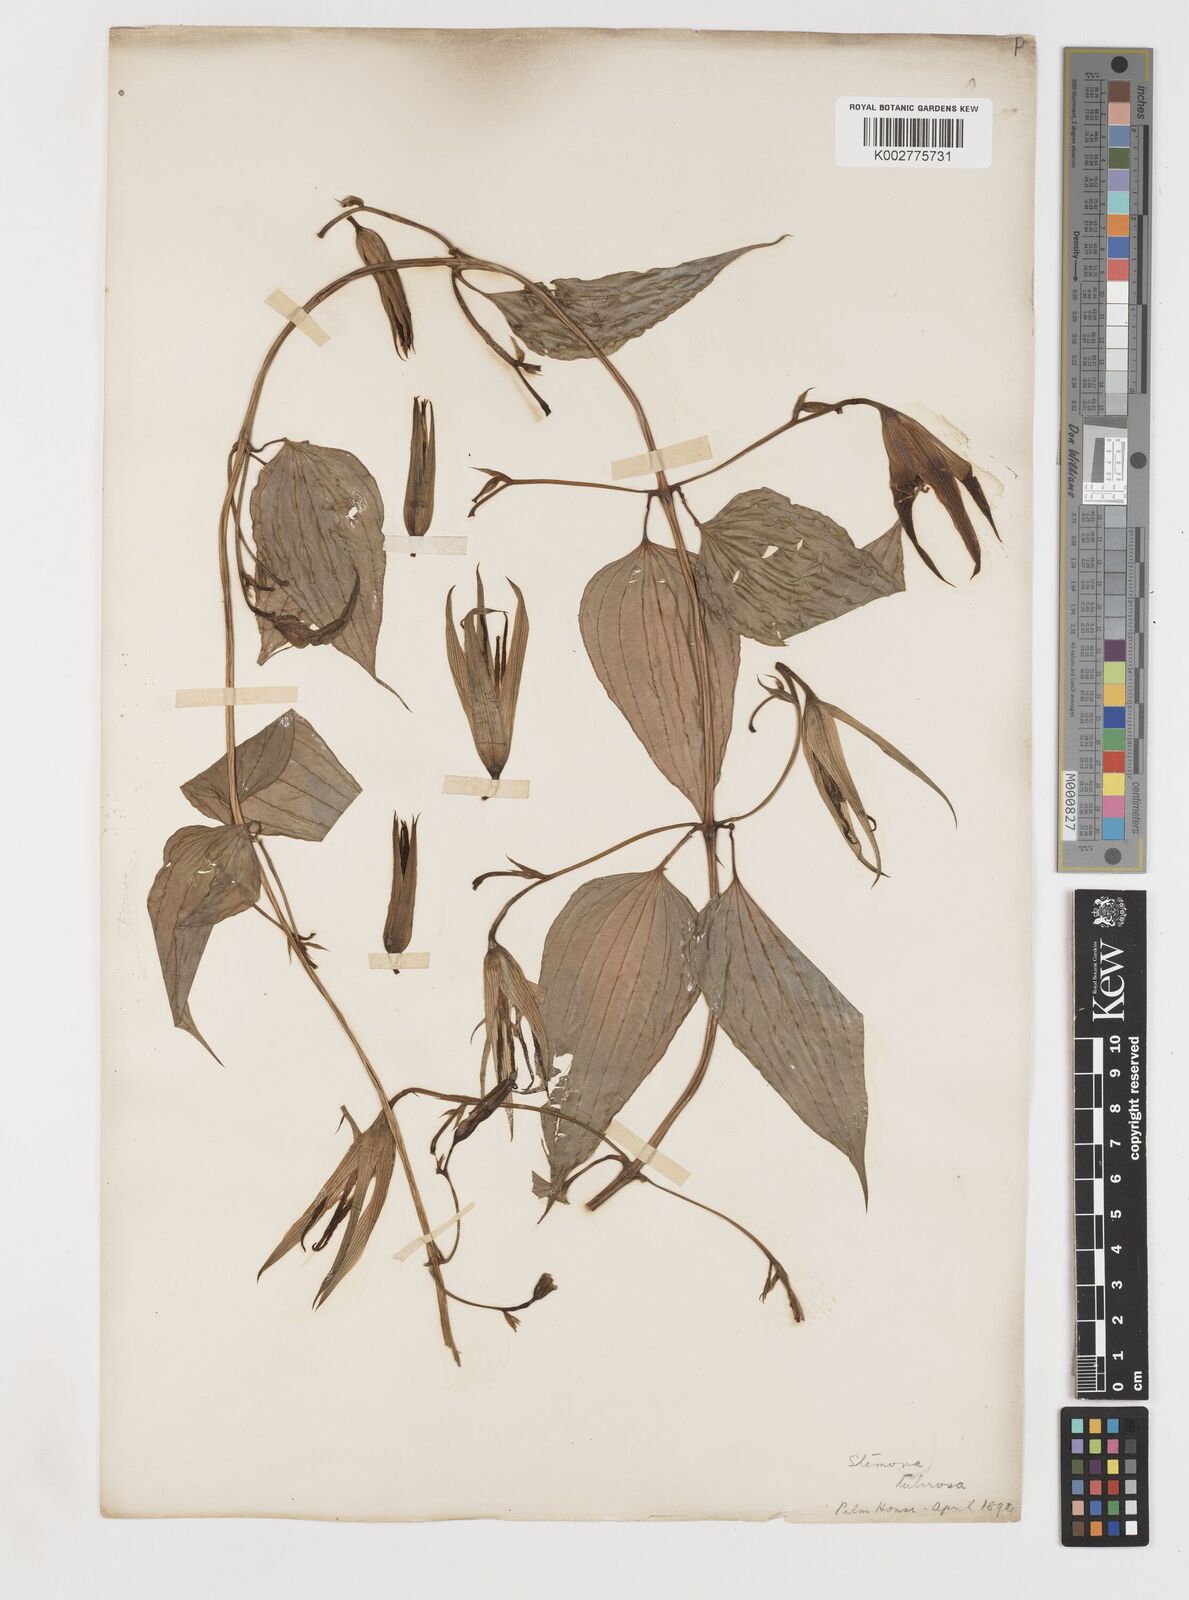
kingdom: Plantae
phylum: Tracheophyta
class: Liliopsida
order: Pandanales
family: Stemonaceae
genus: Stemona
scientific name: Stemona tuberosa
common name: Stemona
